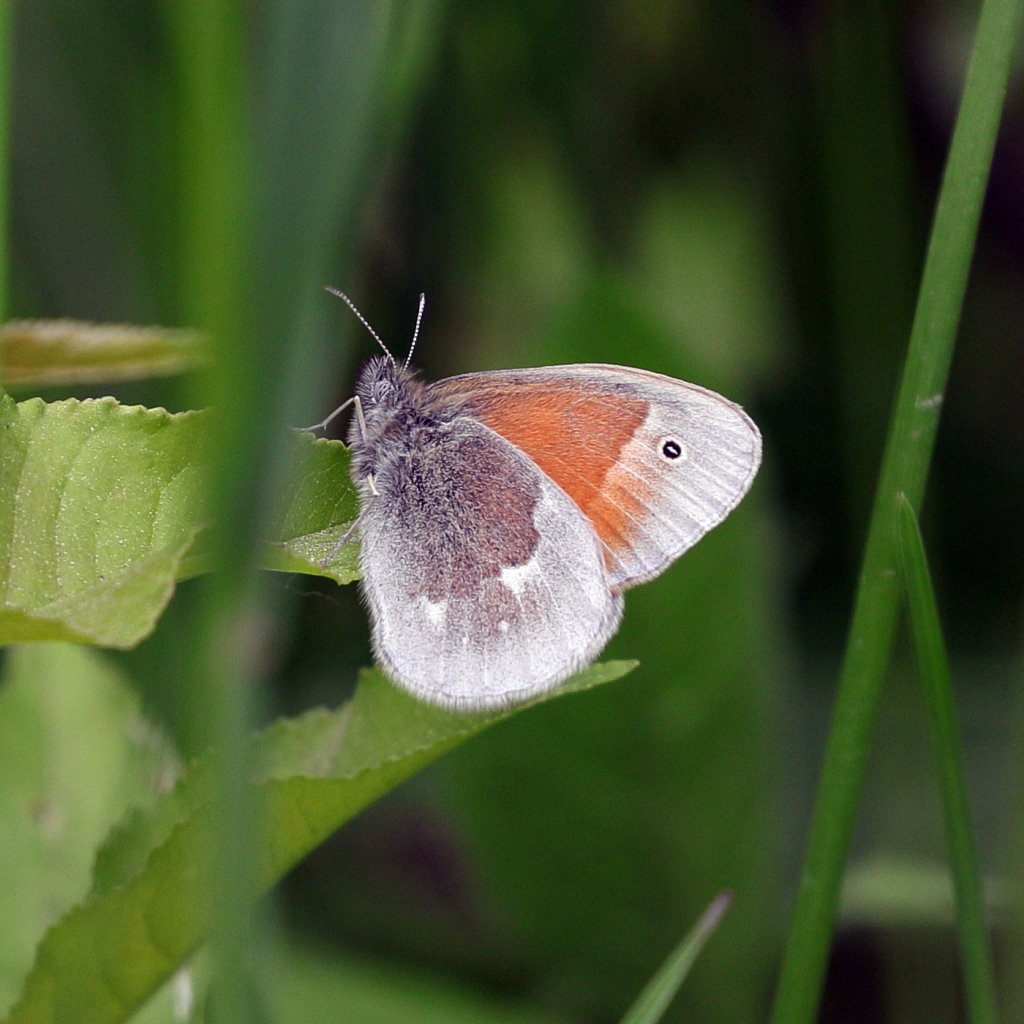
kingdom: Animalia
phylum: Arthropoda
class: Insecta
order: Lepidoptera
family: Nymphalidae
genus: Coenonympha
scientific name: Coenonympha tullia
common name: Large Heath
